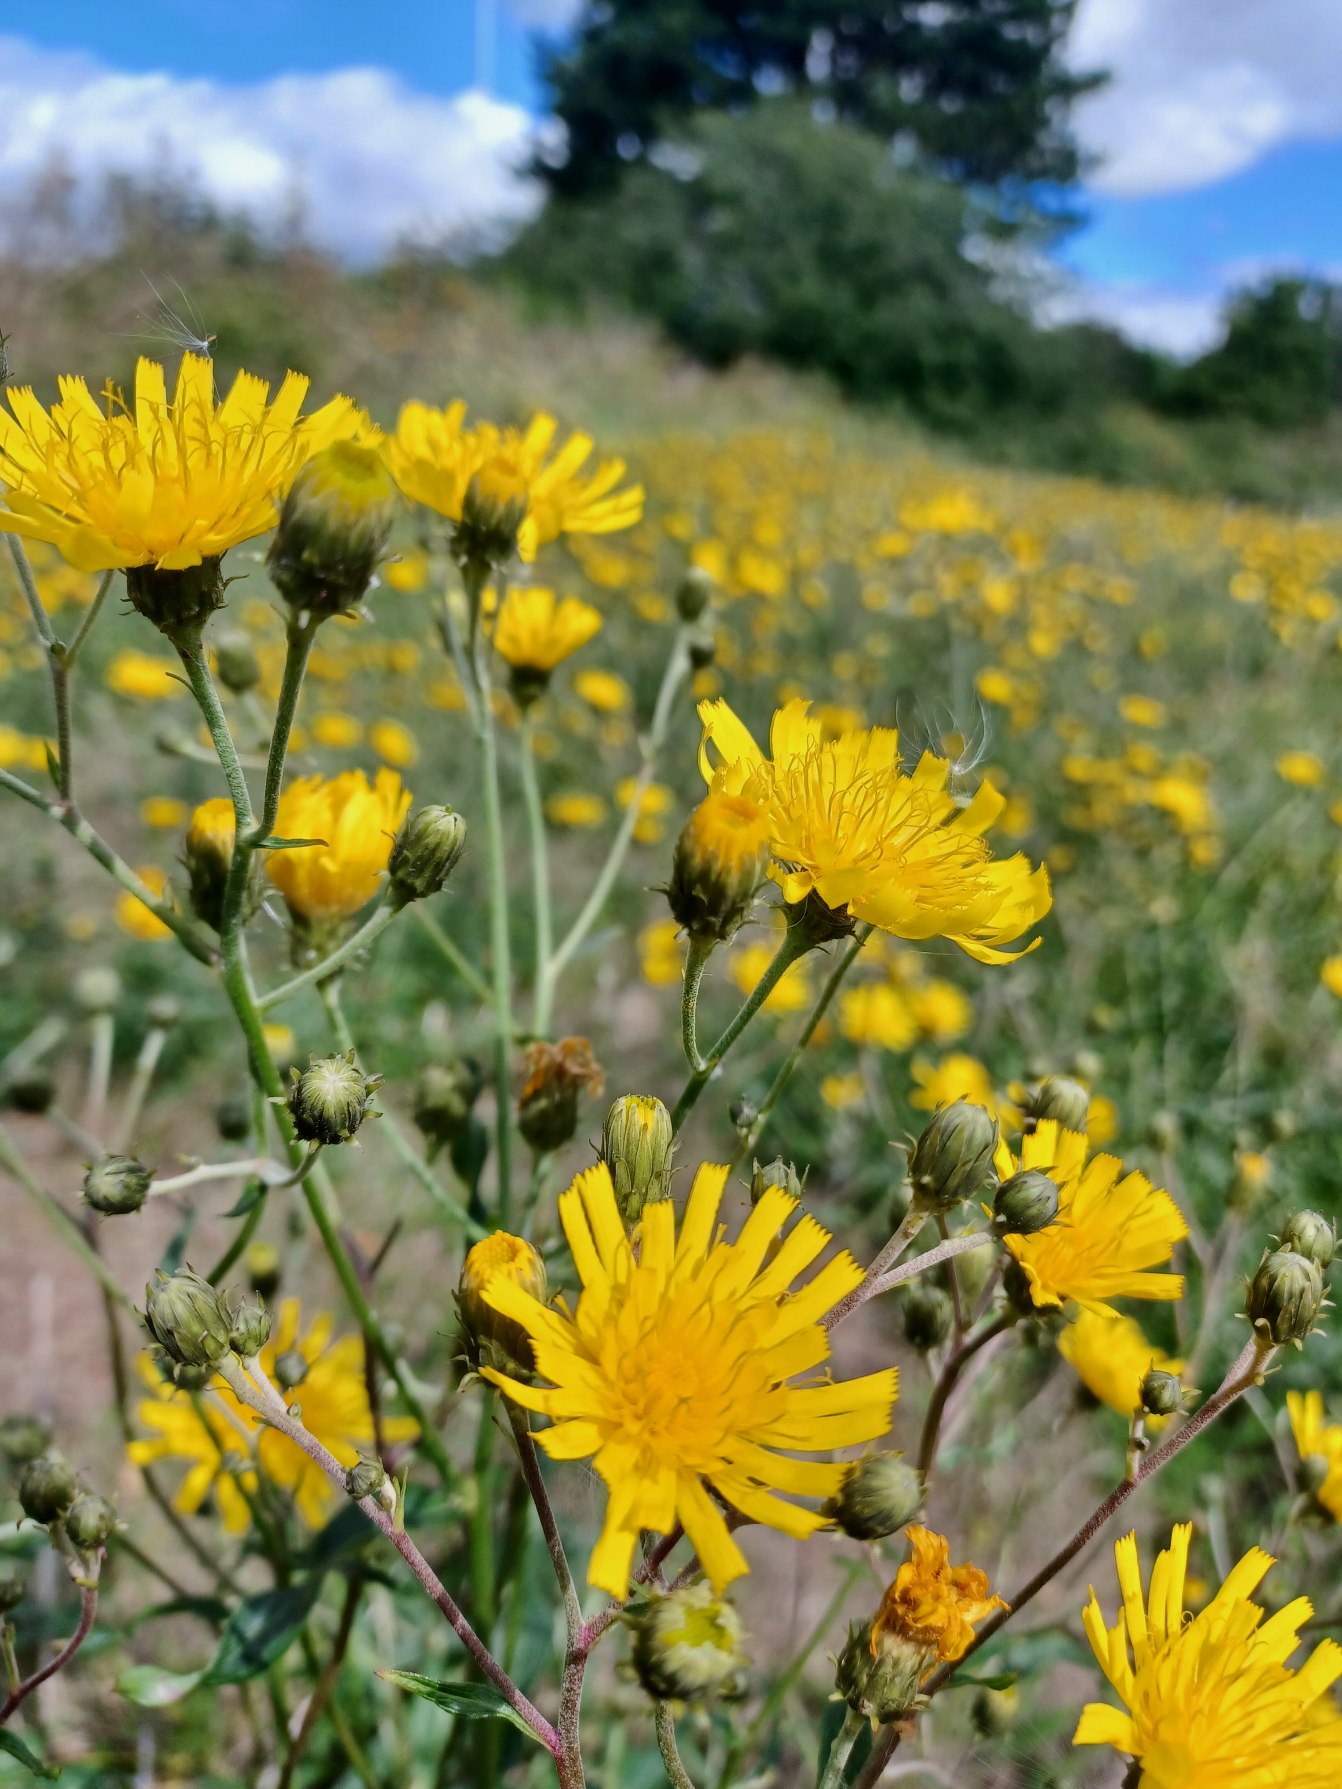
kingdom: Plantae
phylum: Tracheophyta
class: Magnoliopsida
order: Asterales
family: Asteraceae
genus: Hieracioides
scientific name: Hieracioides
